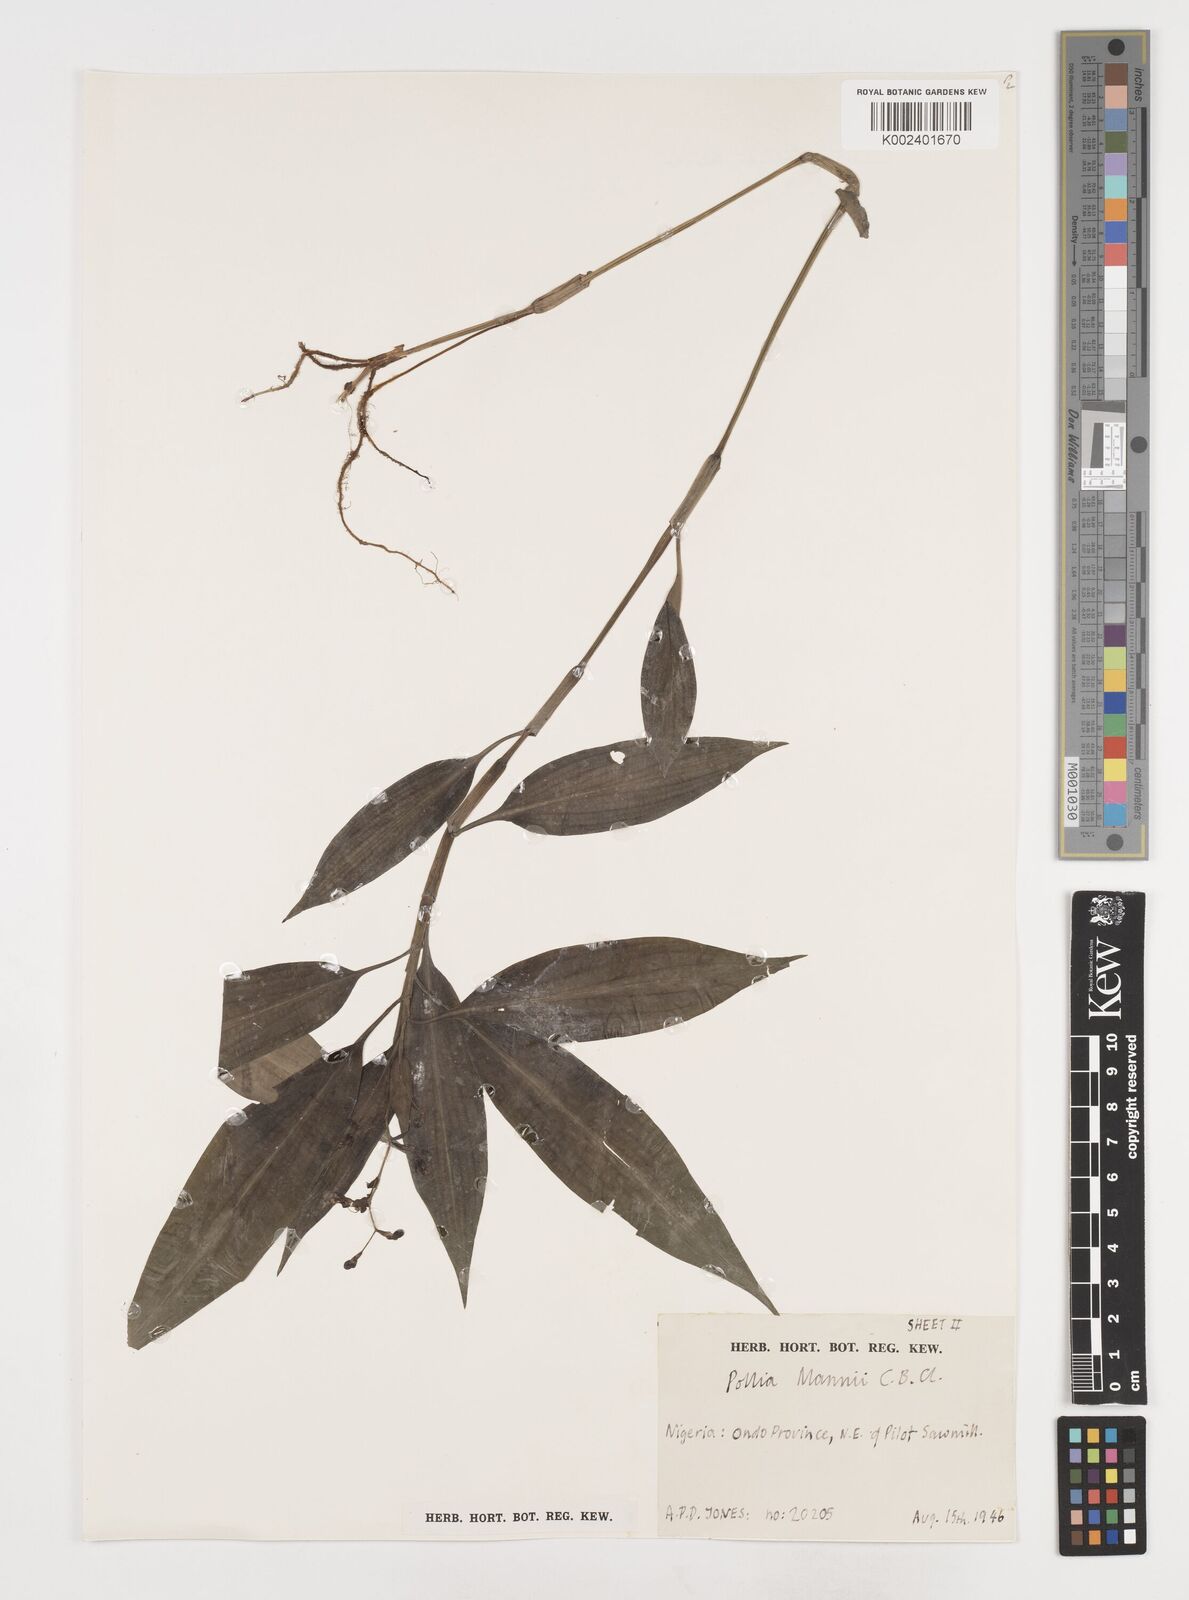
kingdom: Plantae
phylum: Tracheophyta
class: Liliopsida
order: Commelinales
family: Commelinaceae
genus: Pollia
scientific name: Pollia mannii
